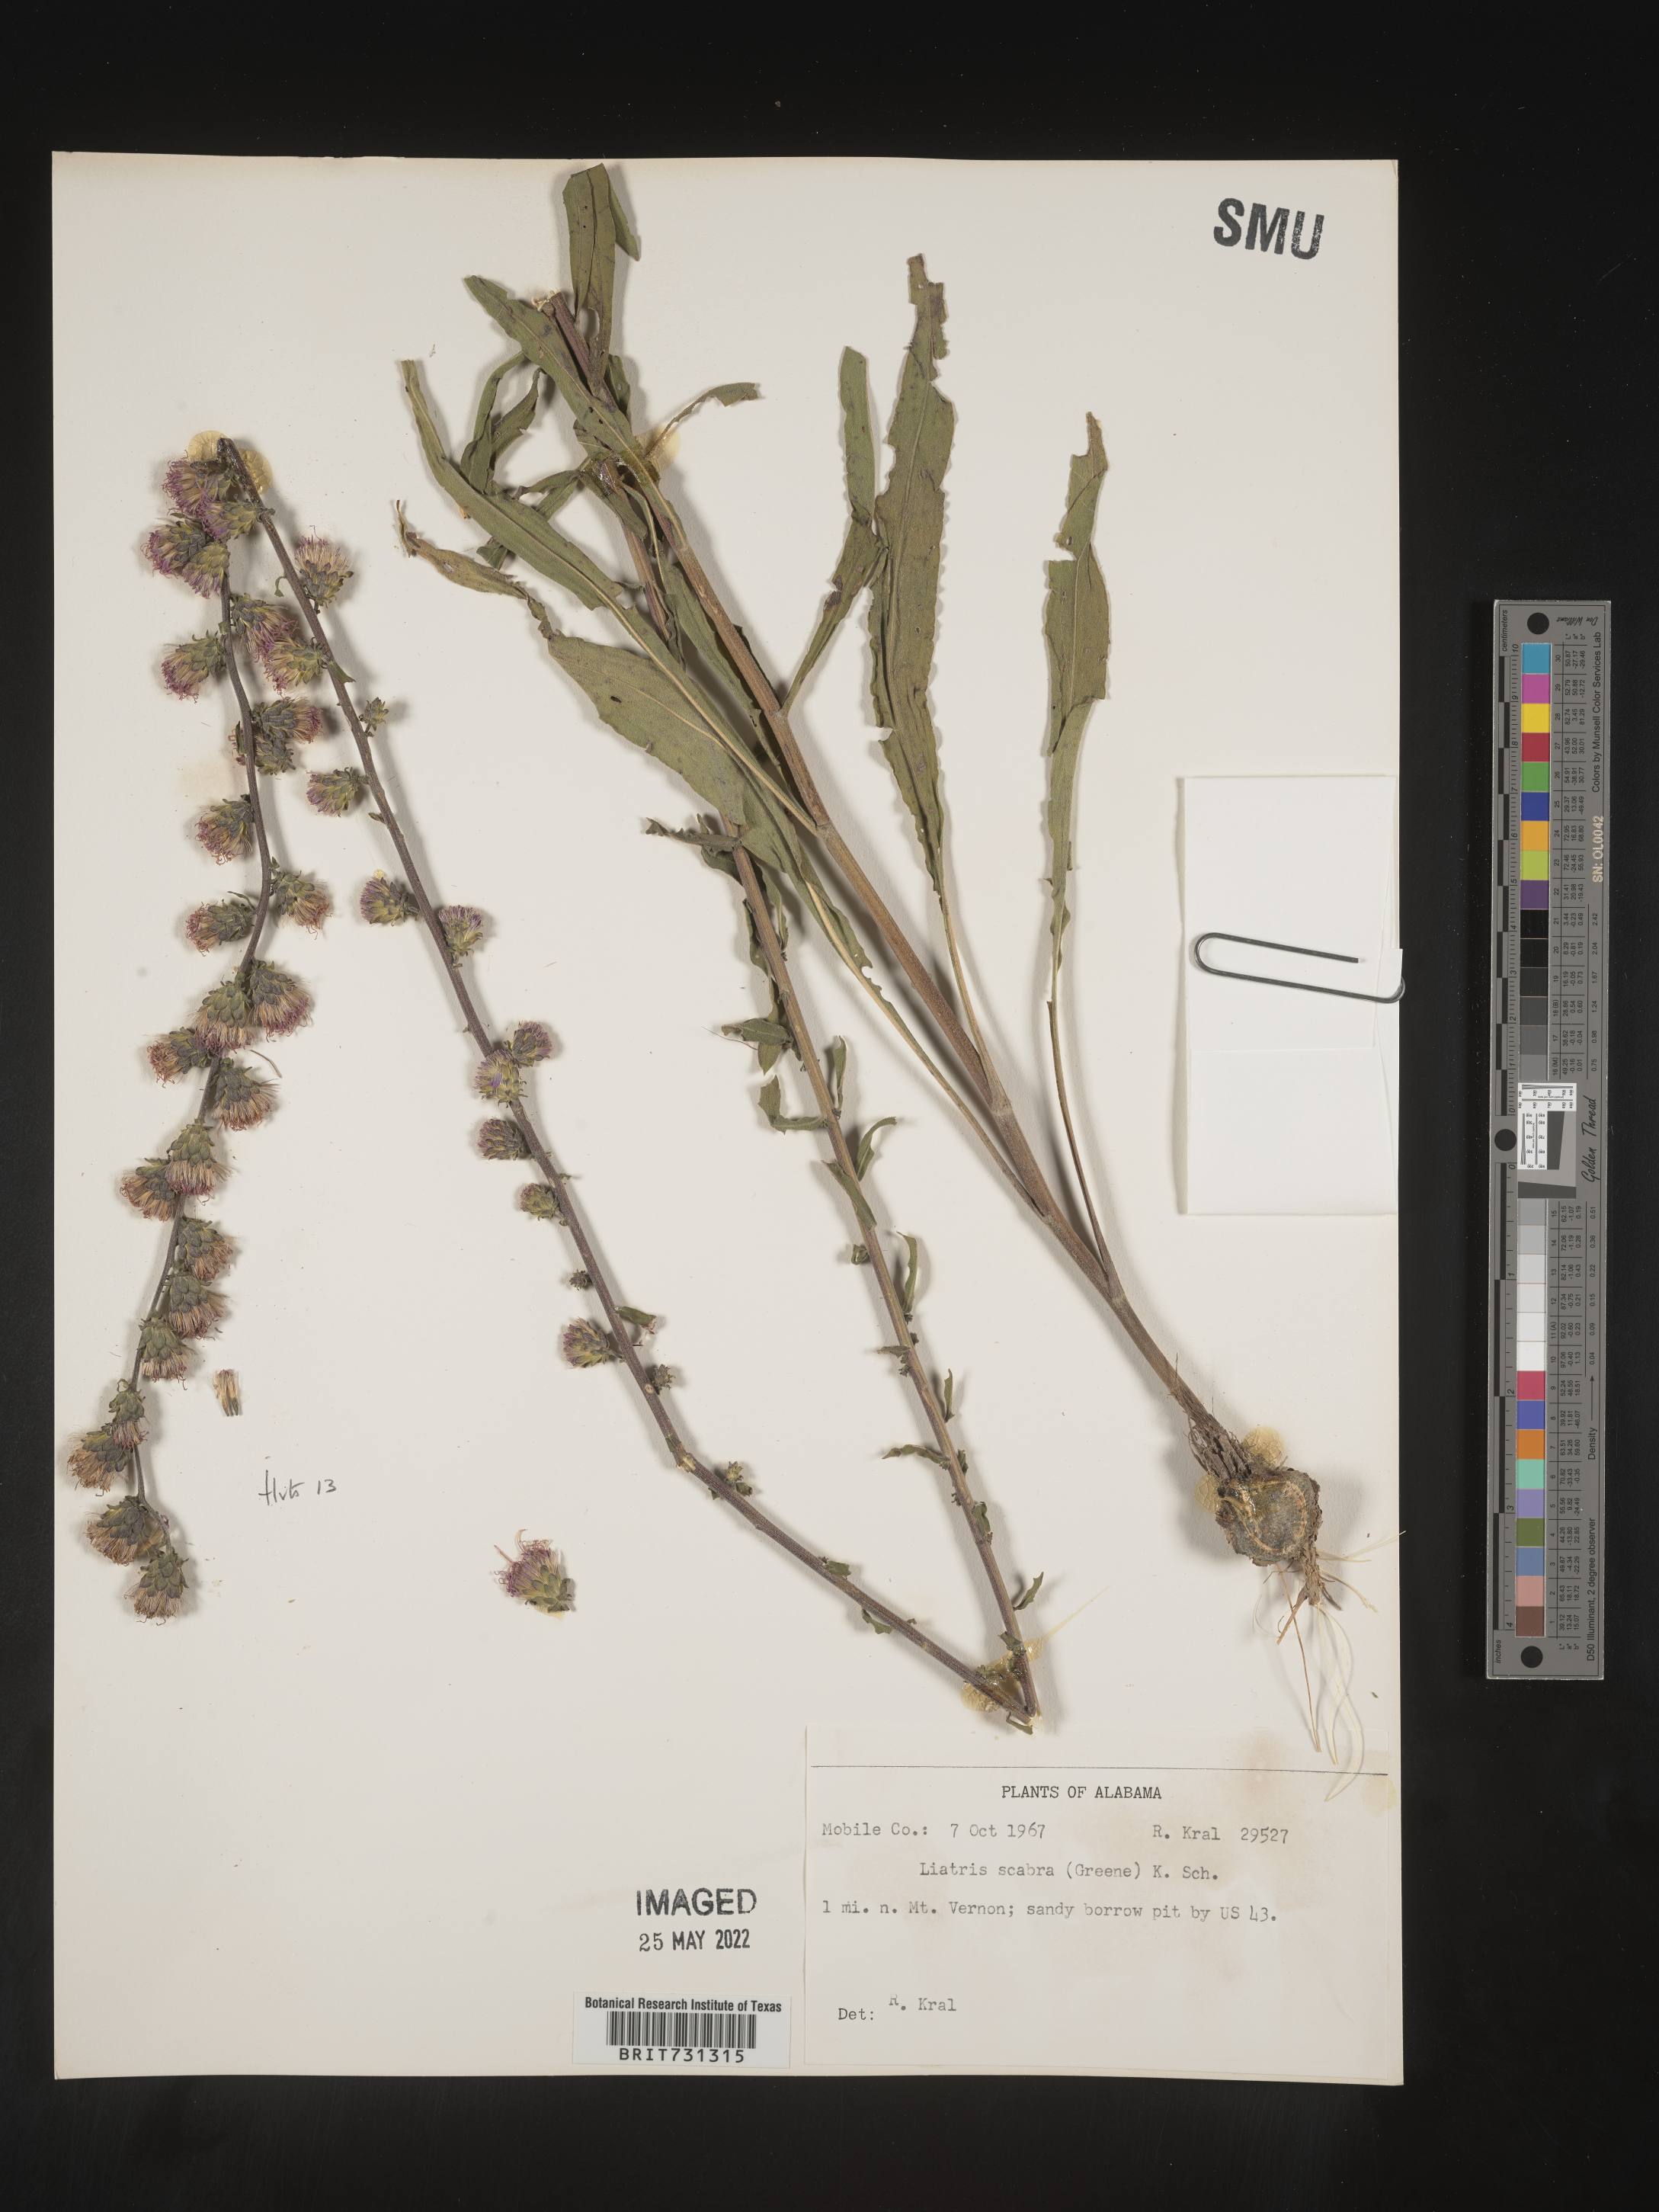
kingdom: Plantae
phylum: Tracheophyta
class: Magnoliopsida
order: Asterales
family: Asteraceae
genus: Liatris
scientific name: Liatris squarrulosa
